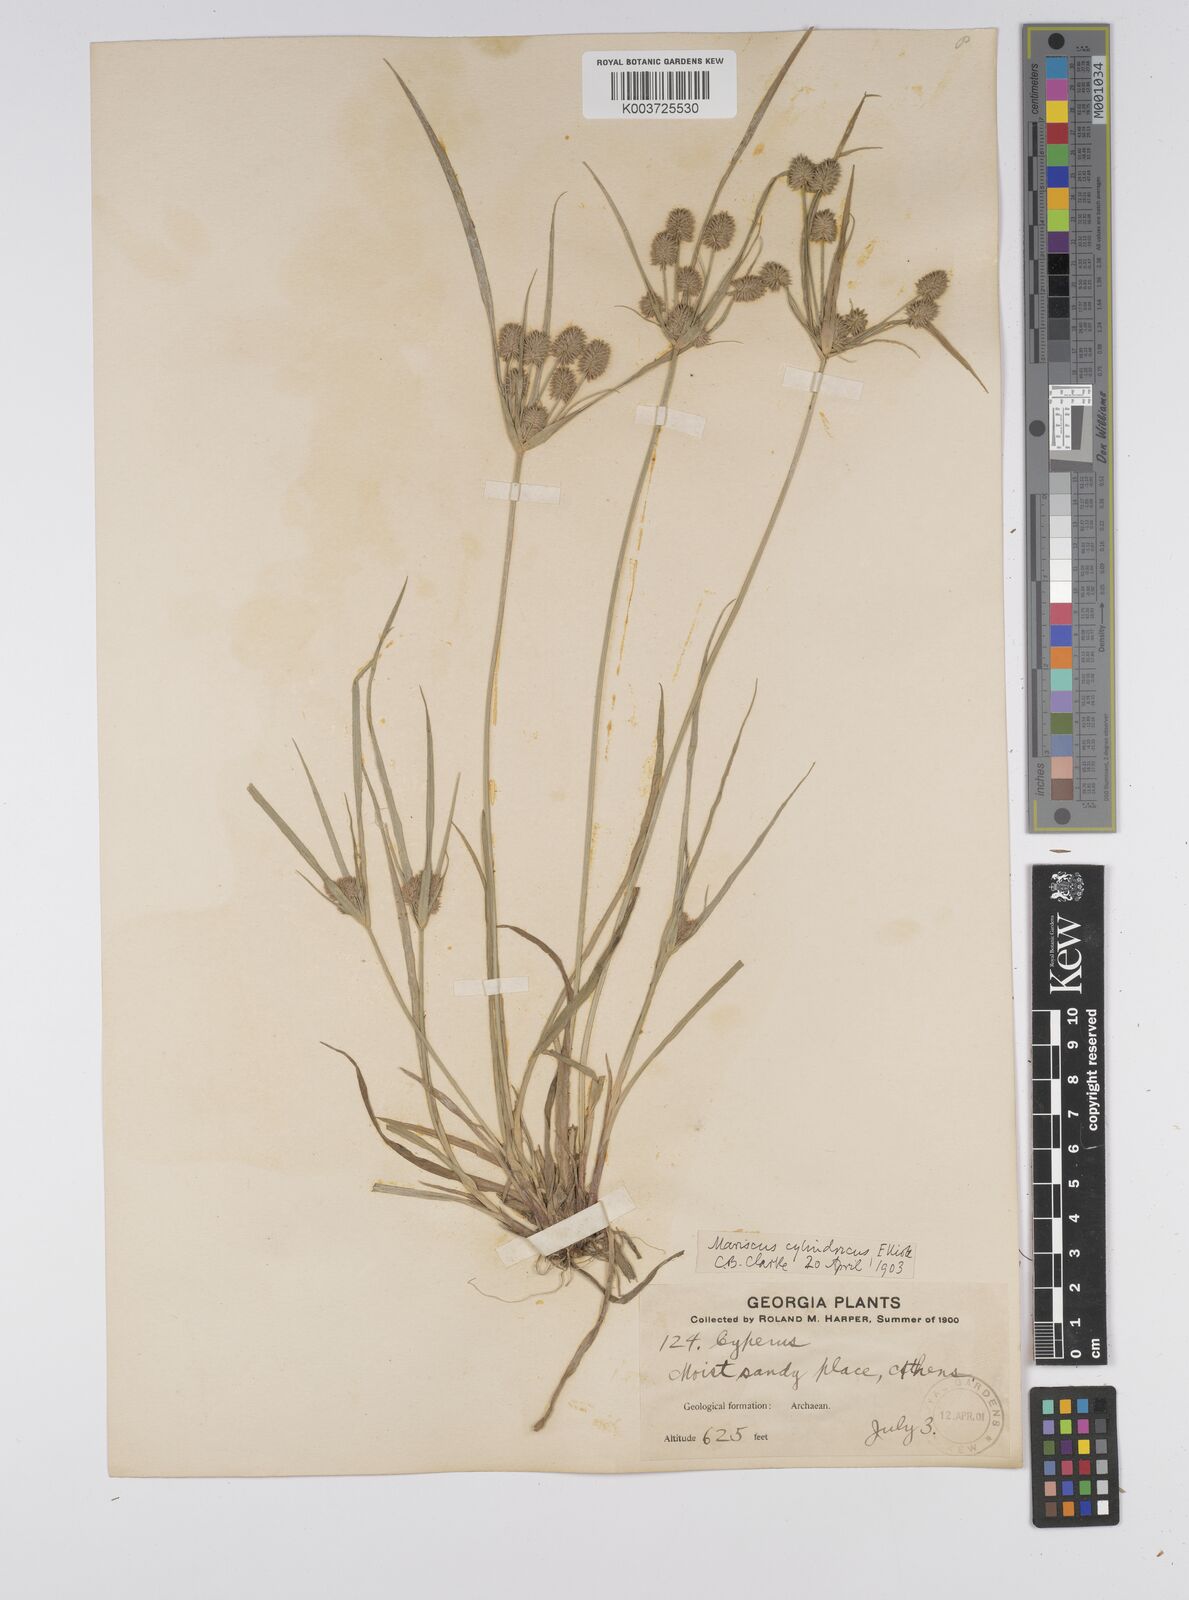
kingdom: Plantae
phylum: Tracheophyta
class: Liliopsida
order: Poales
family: Cyperaceae
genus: Cyperus
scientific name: Cyperus retrorsus
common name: Pinebarren flat sedge
